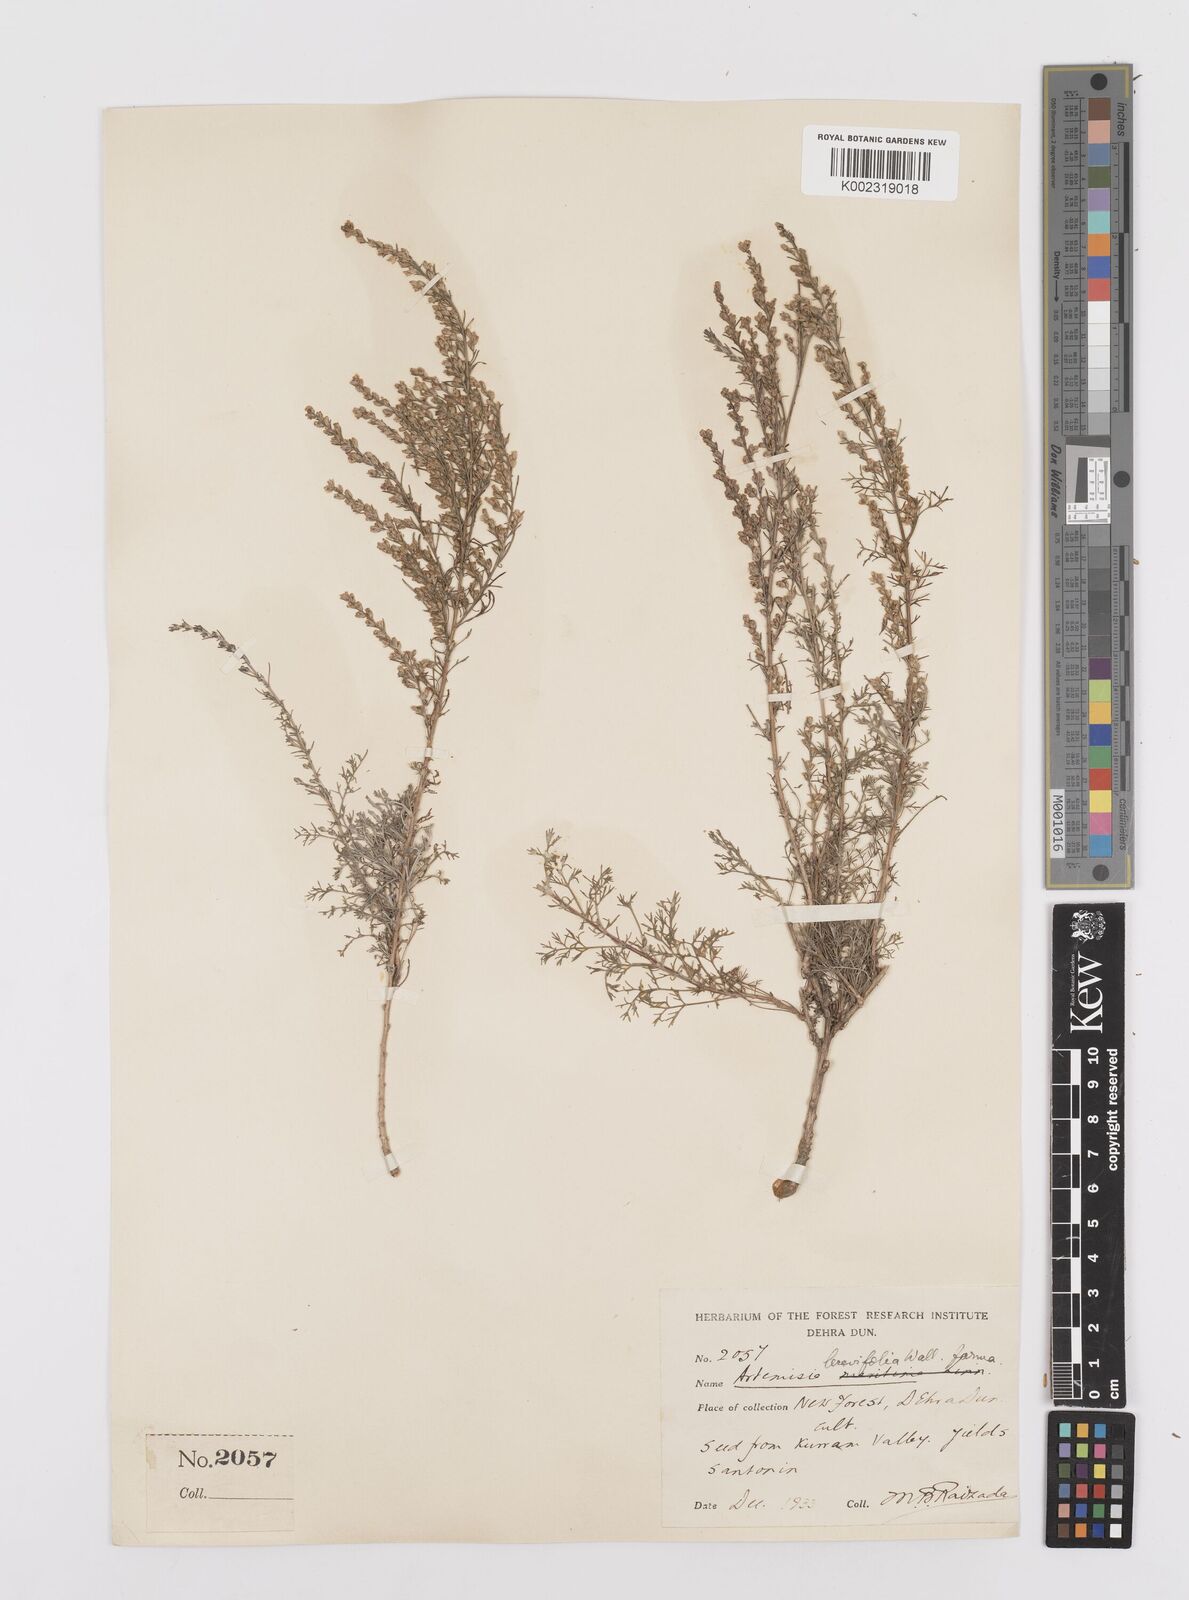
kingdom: Plantae
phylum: Tracheophyta
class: Magnoliopsida
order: Asterales
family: Asteraceae
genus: Artemisia
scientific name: Artemisia fragrans
